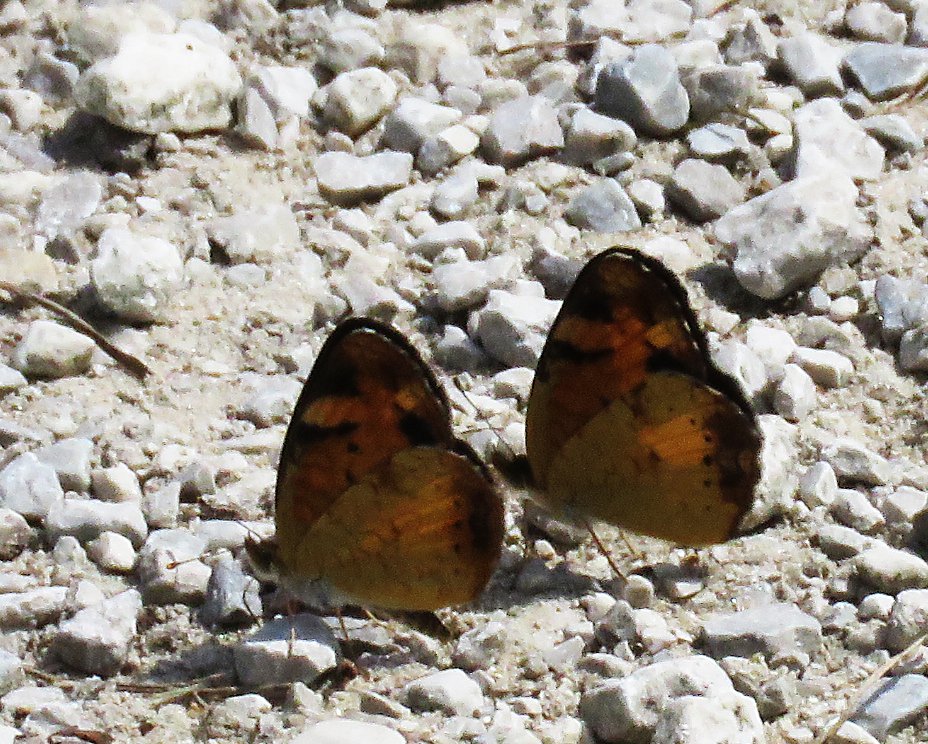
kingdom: Animalia
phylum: Arthropoda
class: Insecta
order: Lepidoptera
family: Nymphalidae
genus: Phyciodes
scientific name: Phyciodes tharos
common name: Northern Crescent
